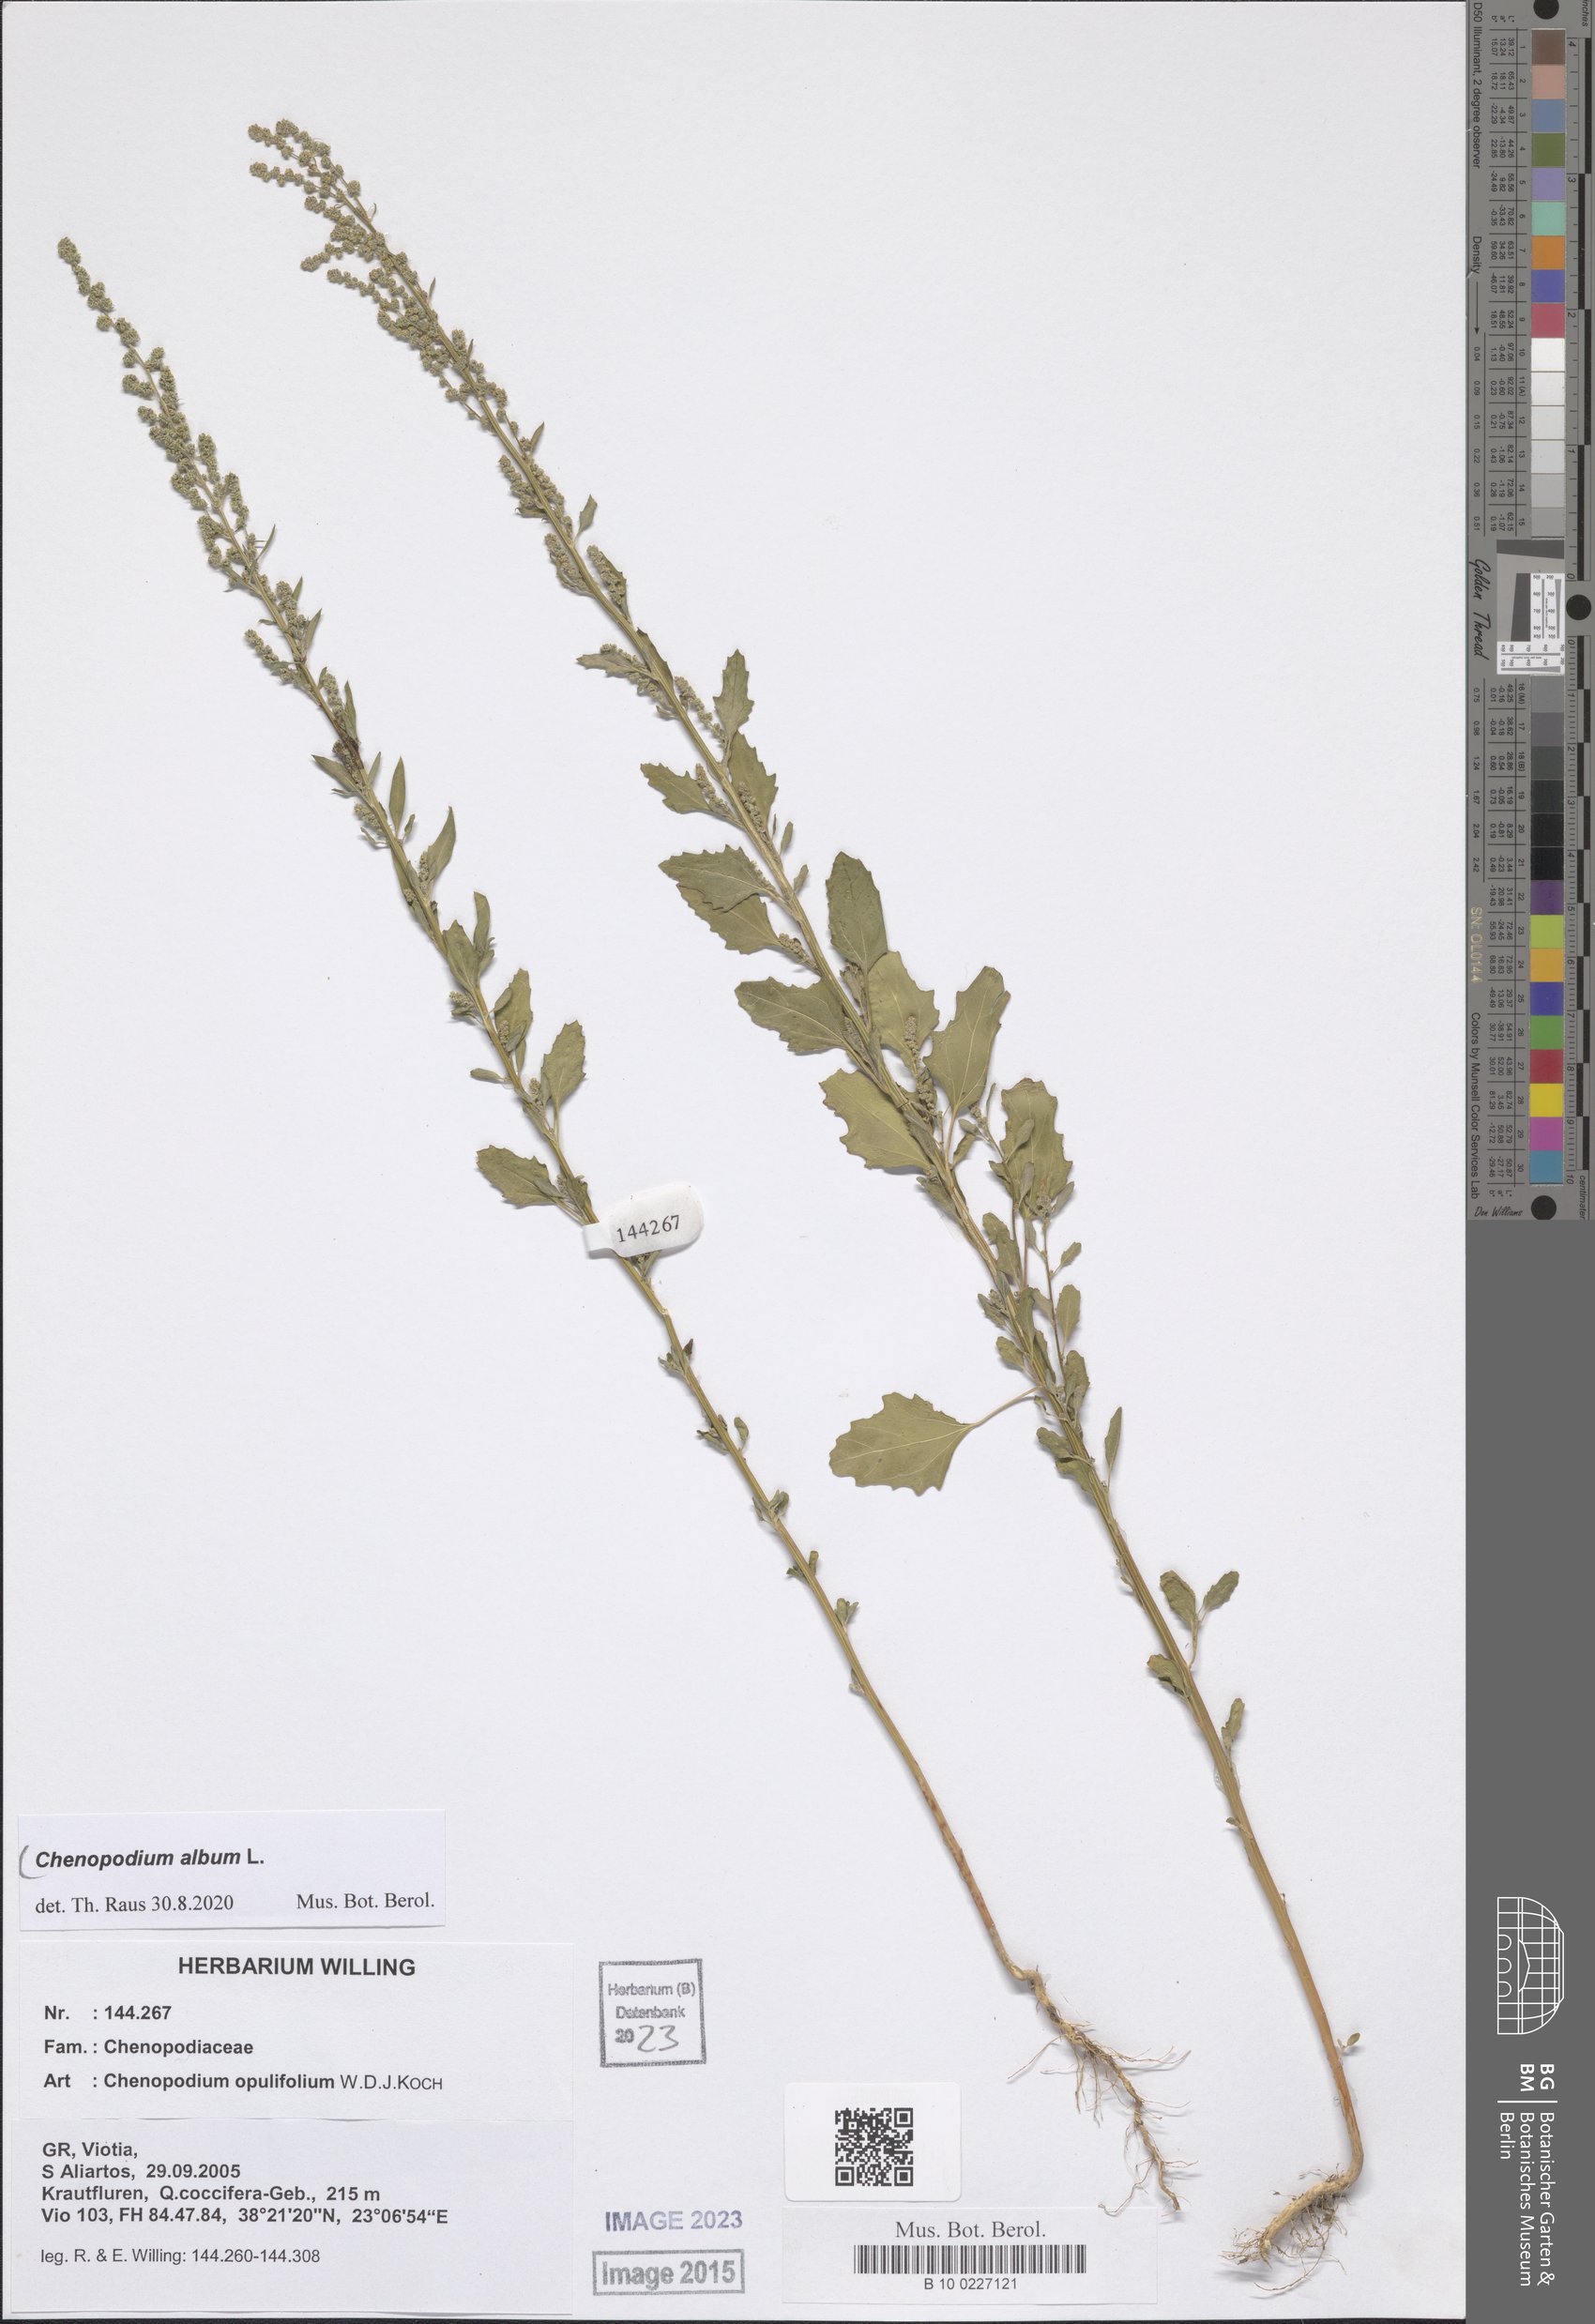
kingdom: Plantae
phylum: Tracheophyta
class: Magnoliopsida
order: Caryophyllales
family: Amaranthaceae
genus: Chenopodium
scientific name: Chenopodium album
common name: Fat-hen
